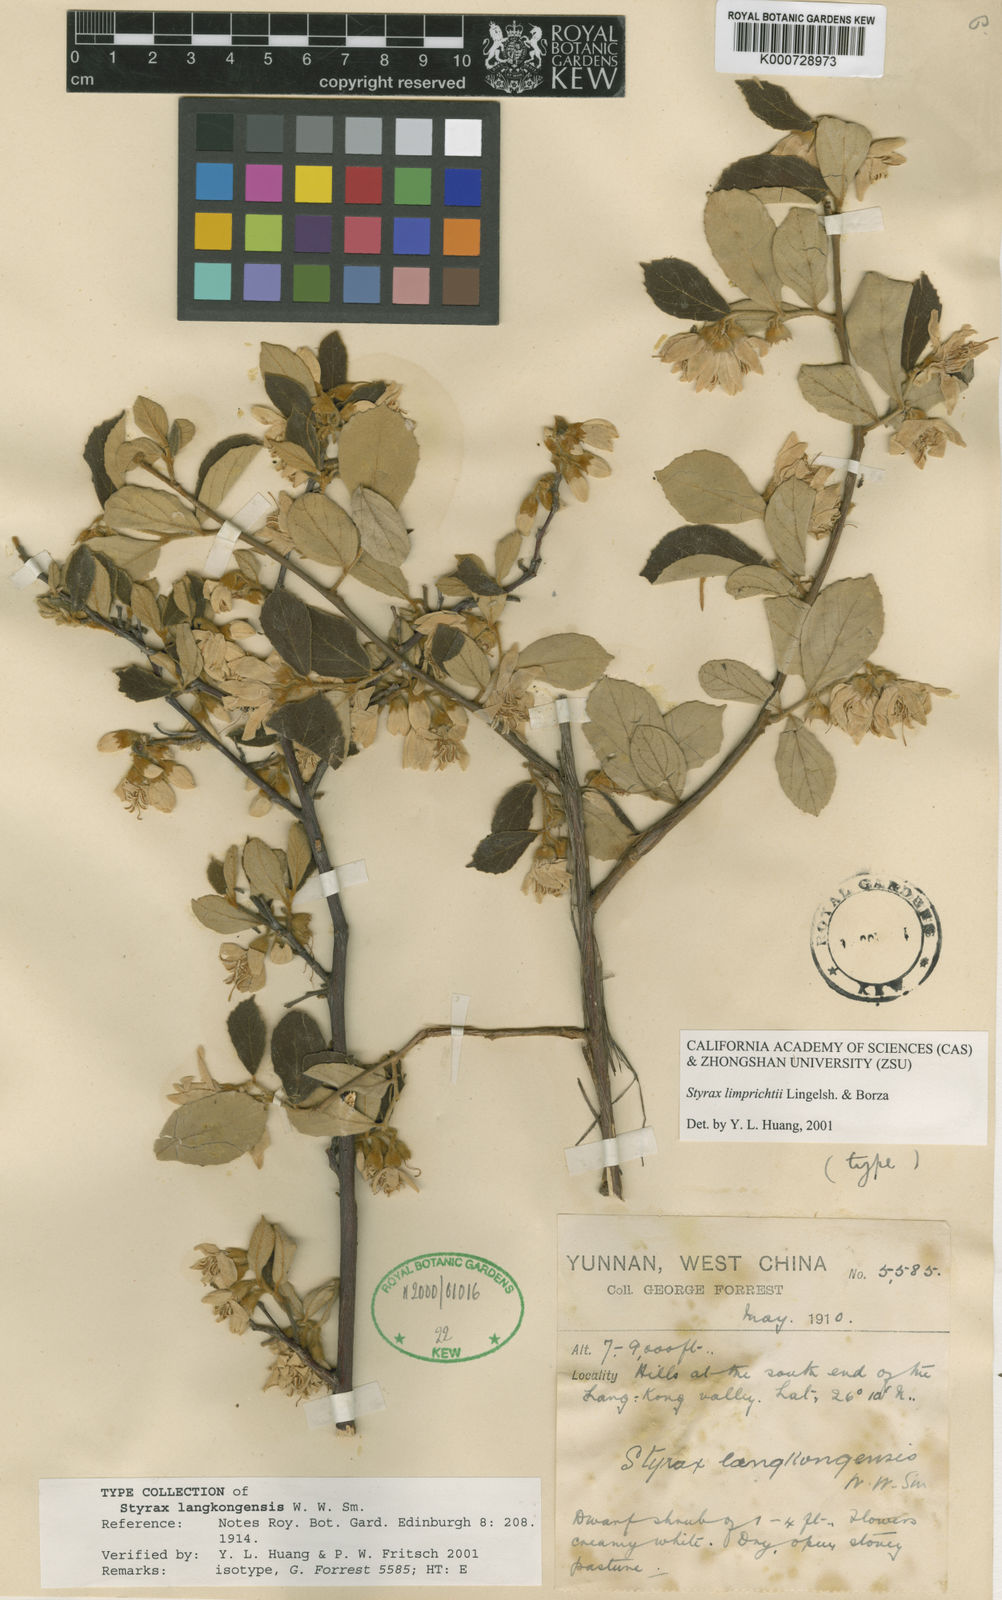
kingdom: Plantae
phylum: Tracheophyta
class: Magnoliopsida
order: Ericales
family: Styracaceae
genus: Styrax
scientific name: Styrax limprichtii
